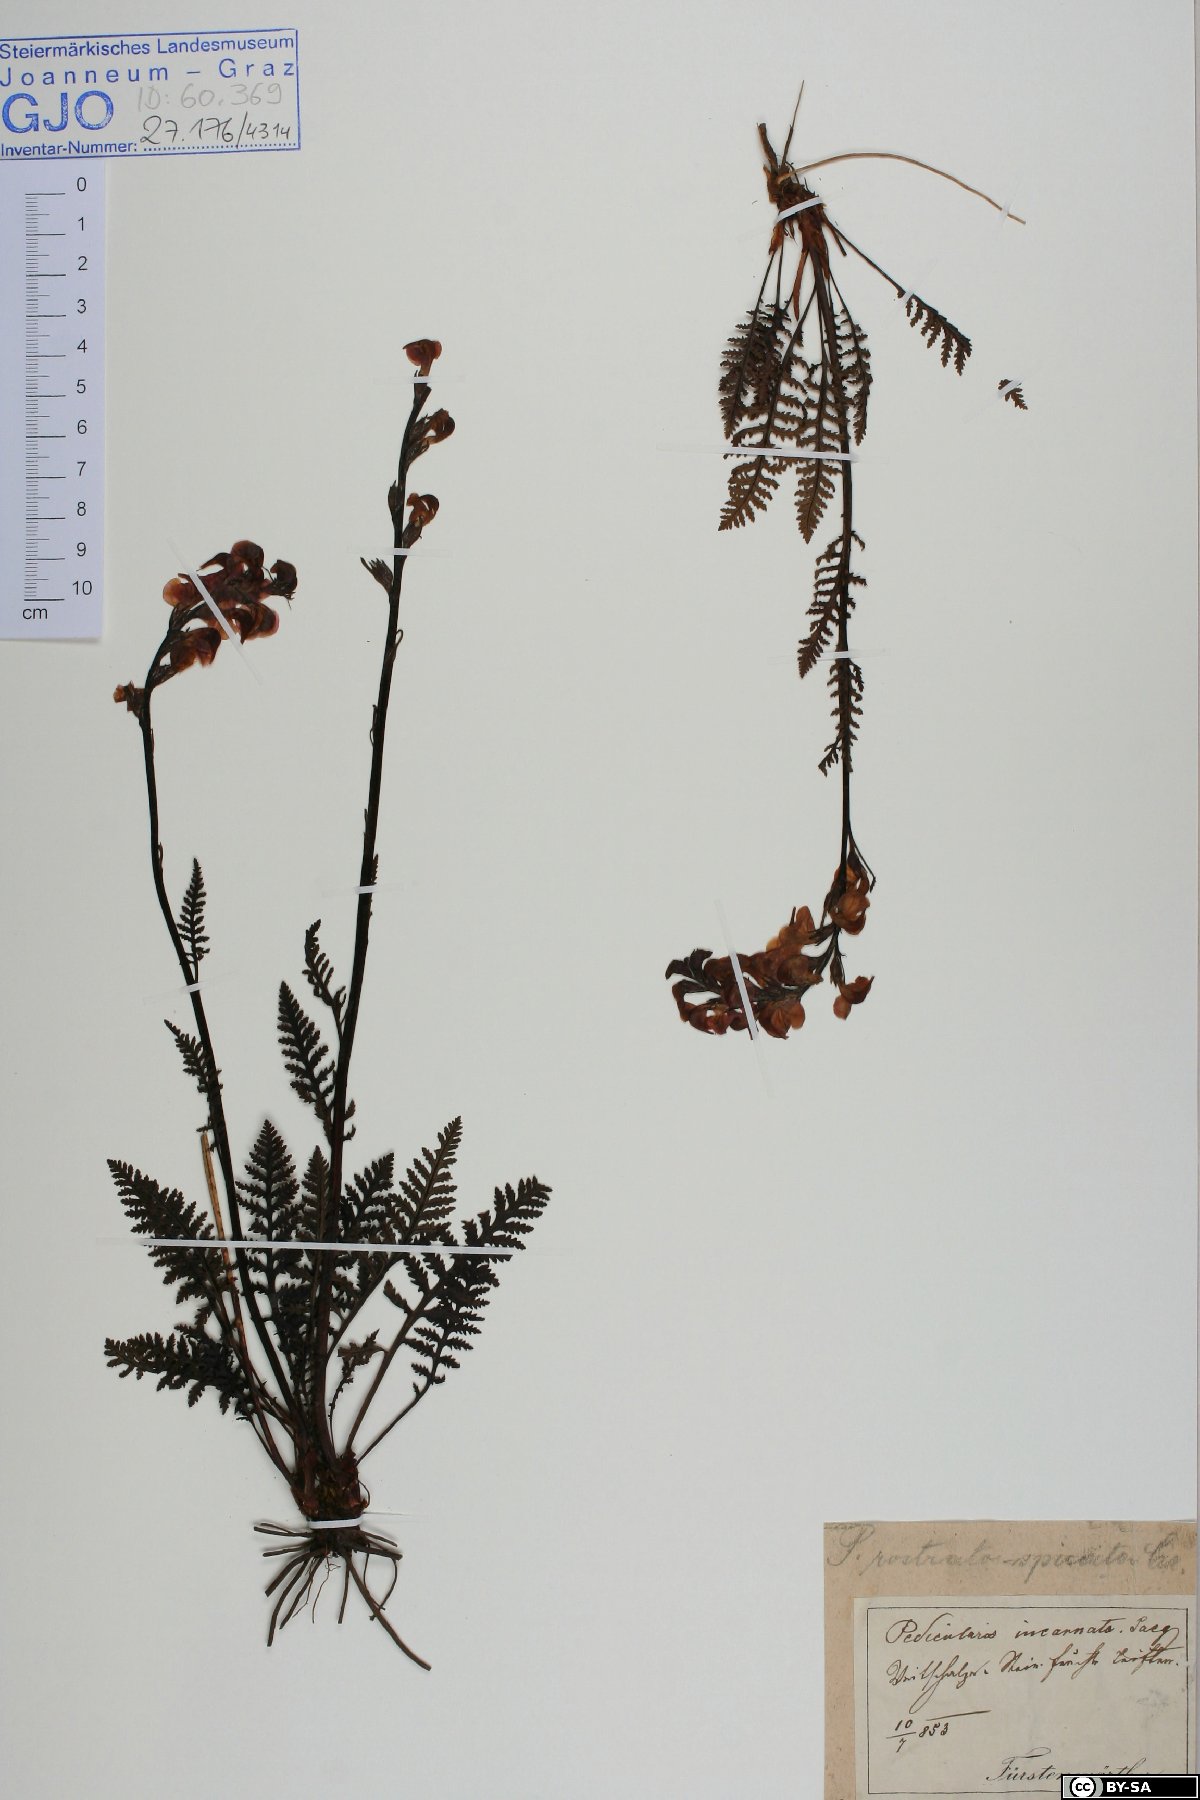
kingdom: Plantae
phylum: Tracheophyta
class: Magnoliopsida
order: Lamiales
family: Orobanchaceae
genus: Pedicularis
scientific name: Pedicularis rostratospicata
